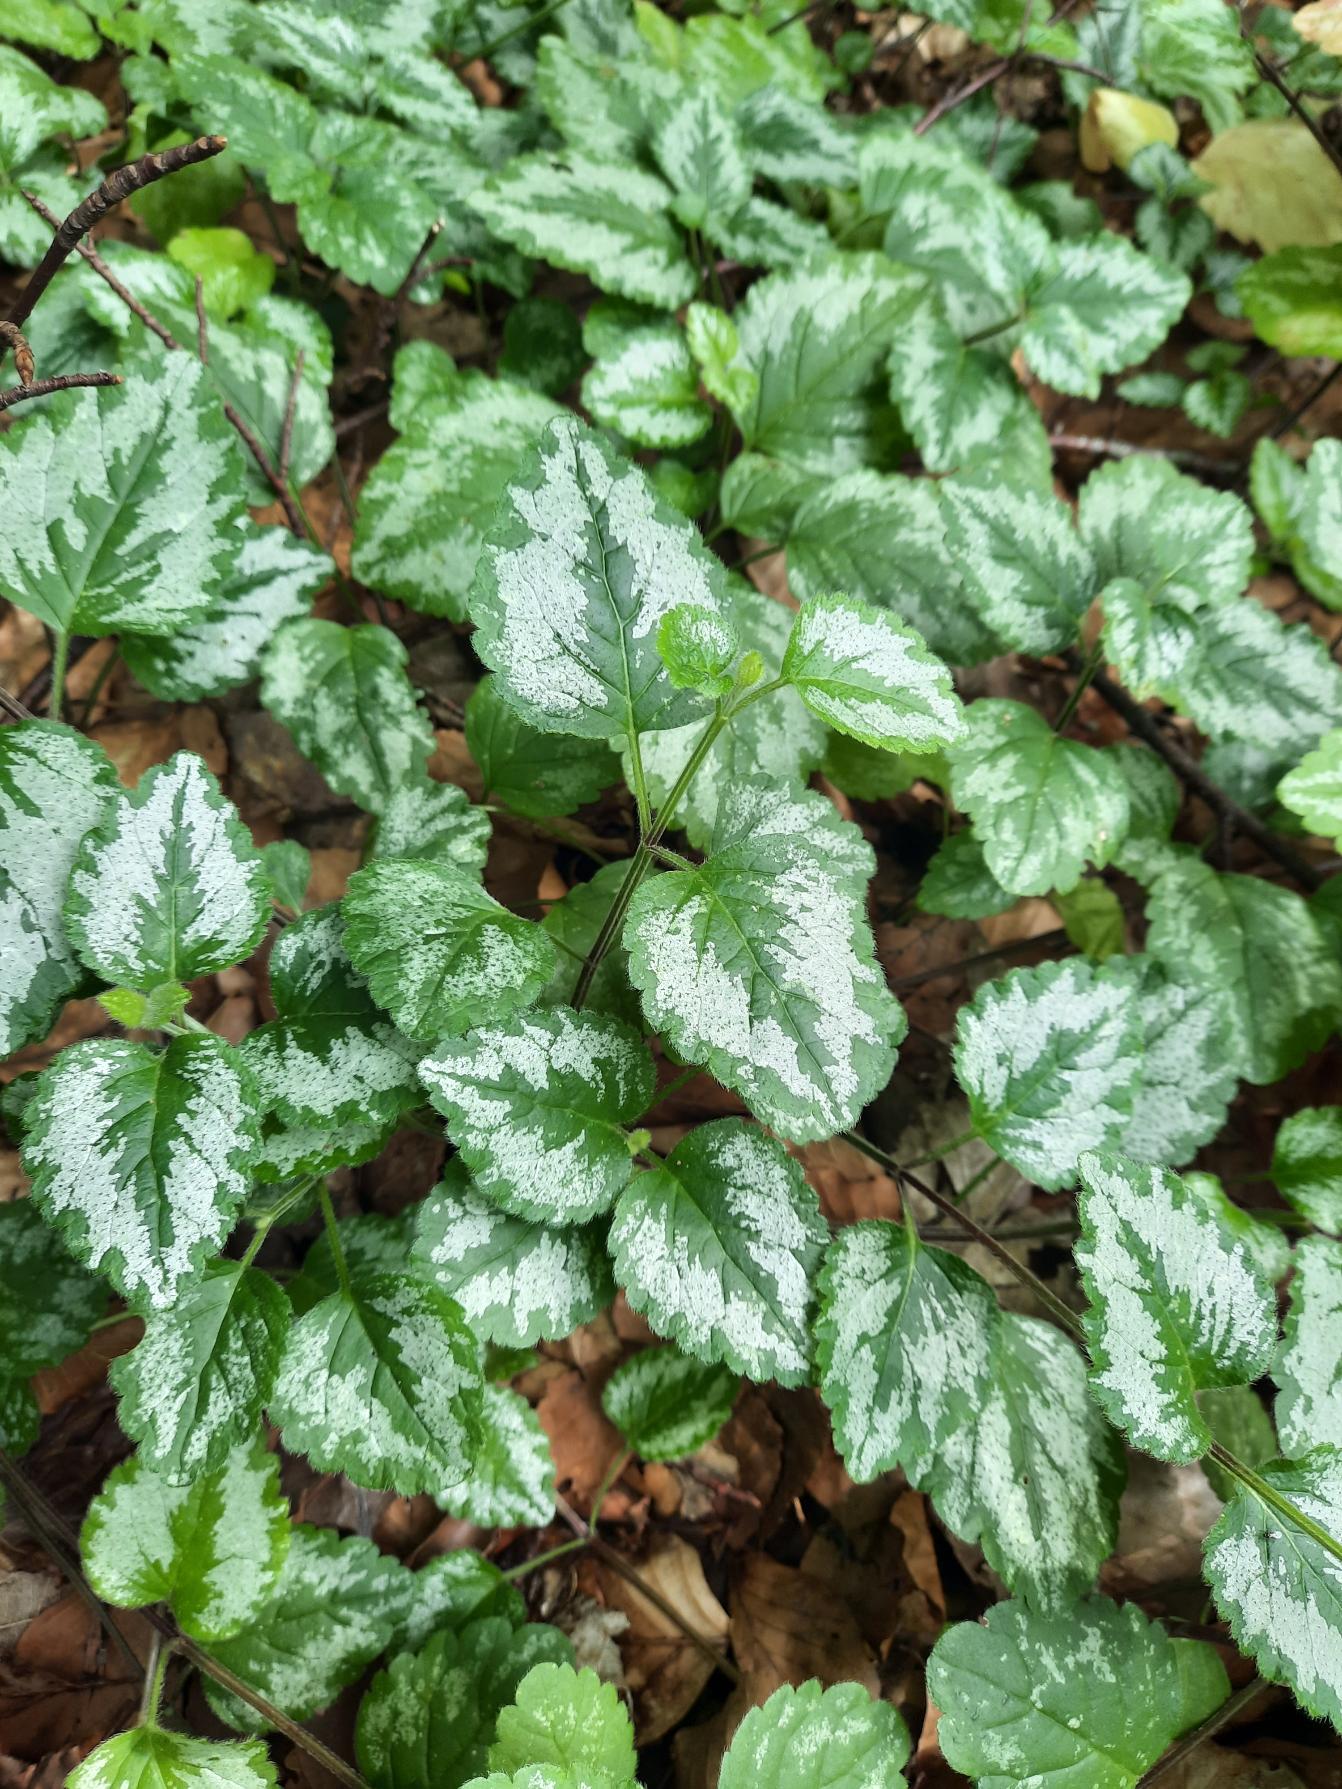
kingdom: Plantae
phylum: Tracheophyta
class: Magnoliopsida
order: Lamiales
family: Lamiaceae
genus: Lamium
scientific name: Lamium galeobdolon
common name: Have-guldnælde
